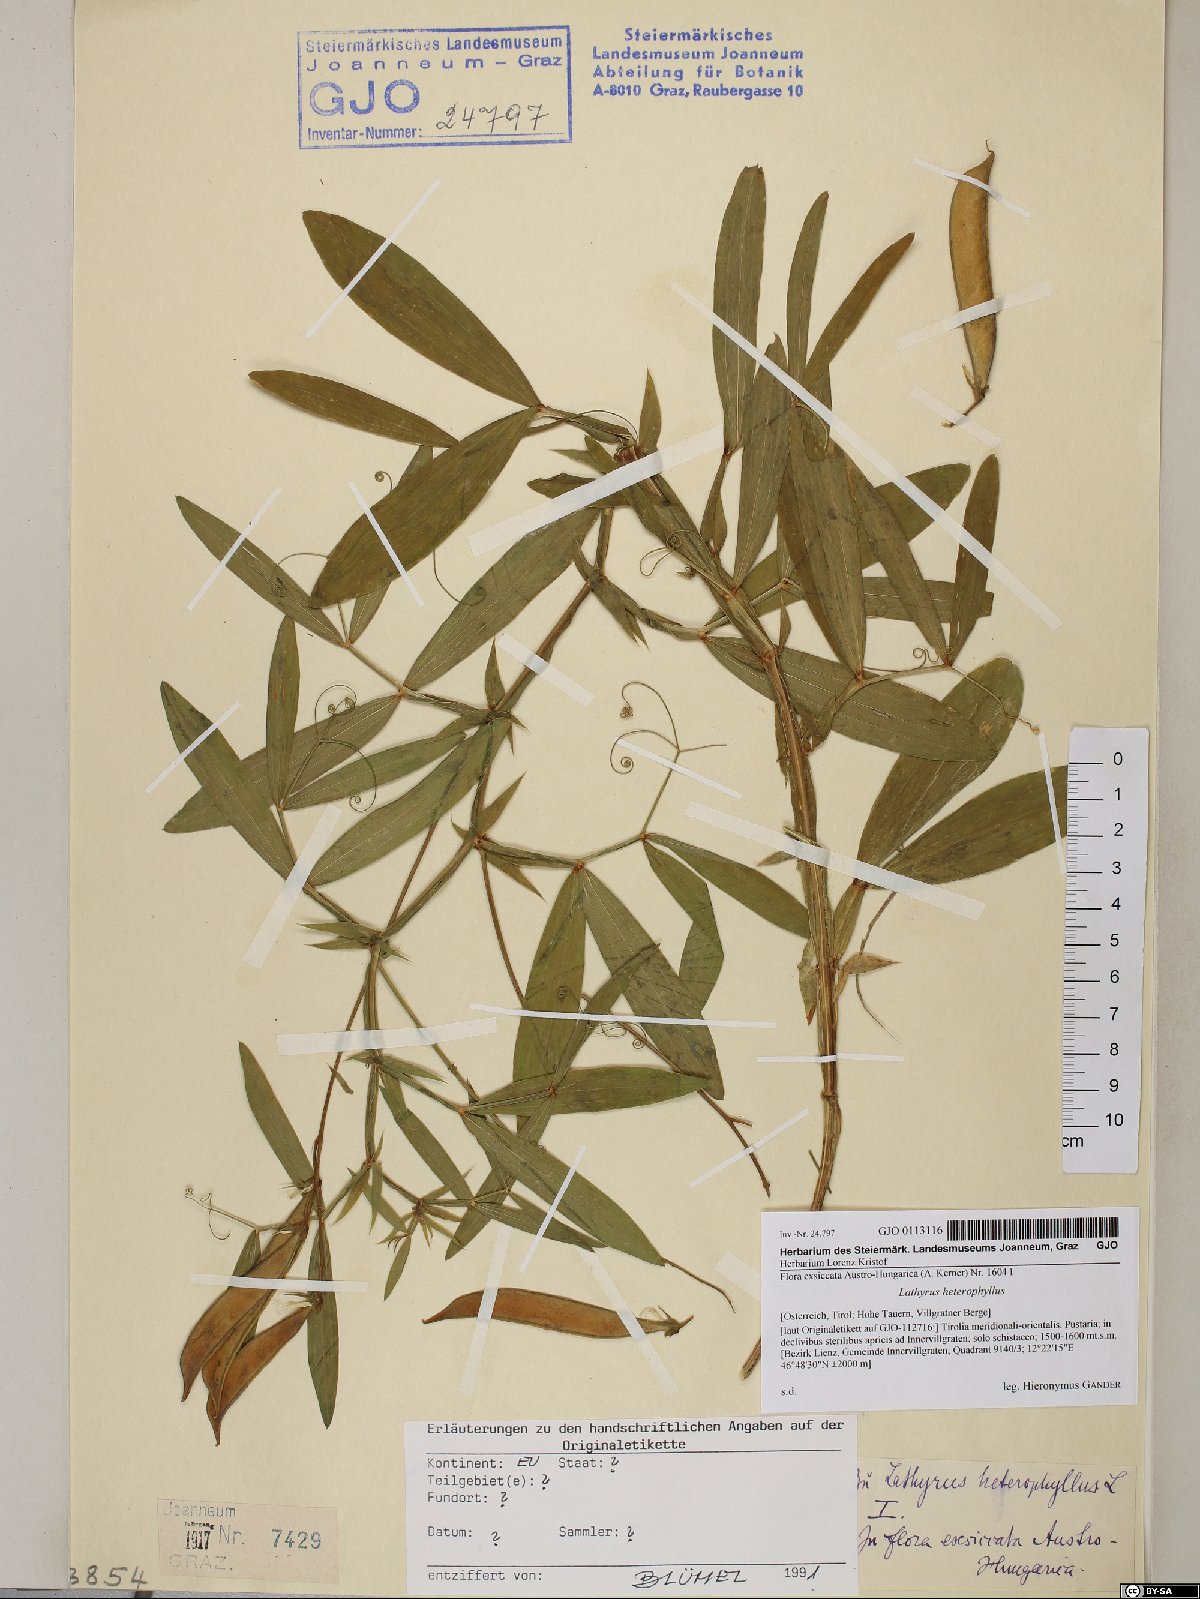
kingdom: Plantae
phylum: Tracheophyta
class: Magnoliopsida
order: Fabales
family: Fabaceae
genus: Lathyrus
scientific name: Lathyrus heterophyllus
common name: Norfolk everlasting-pea
